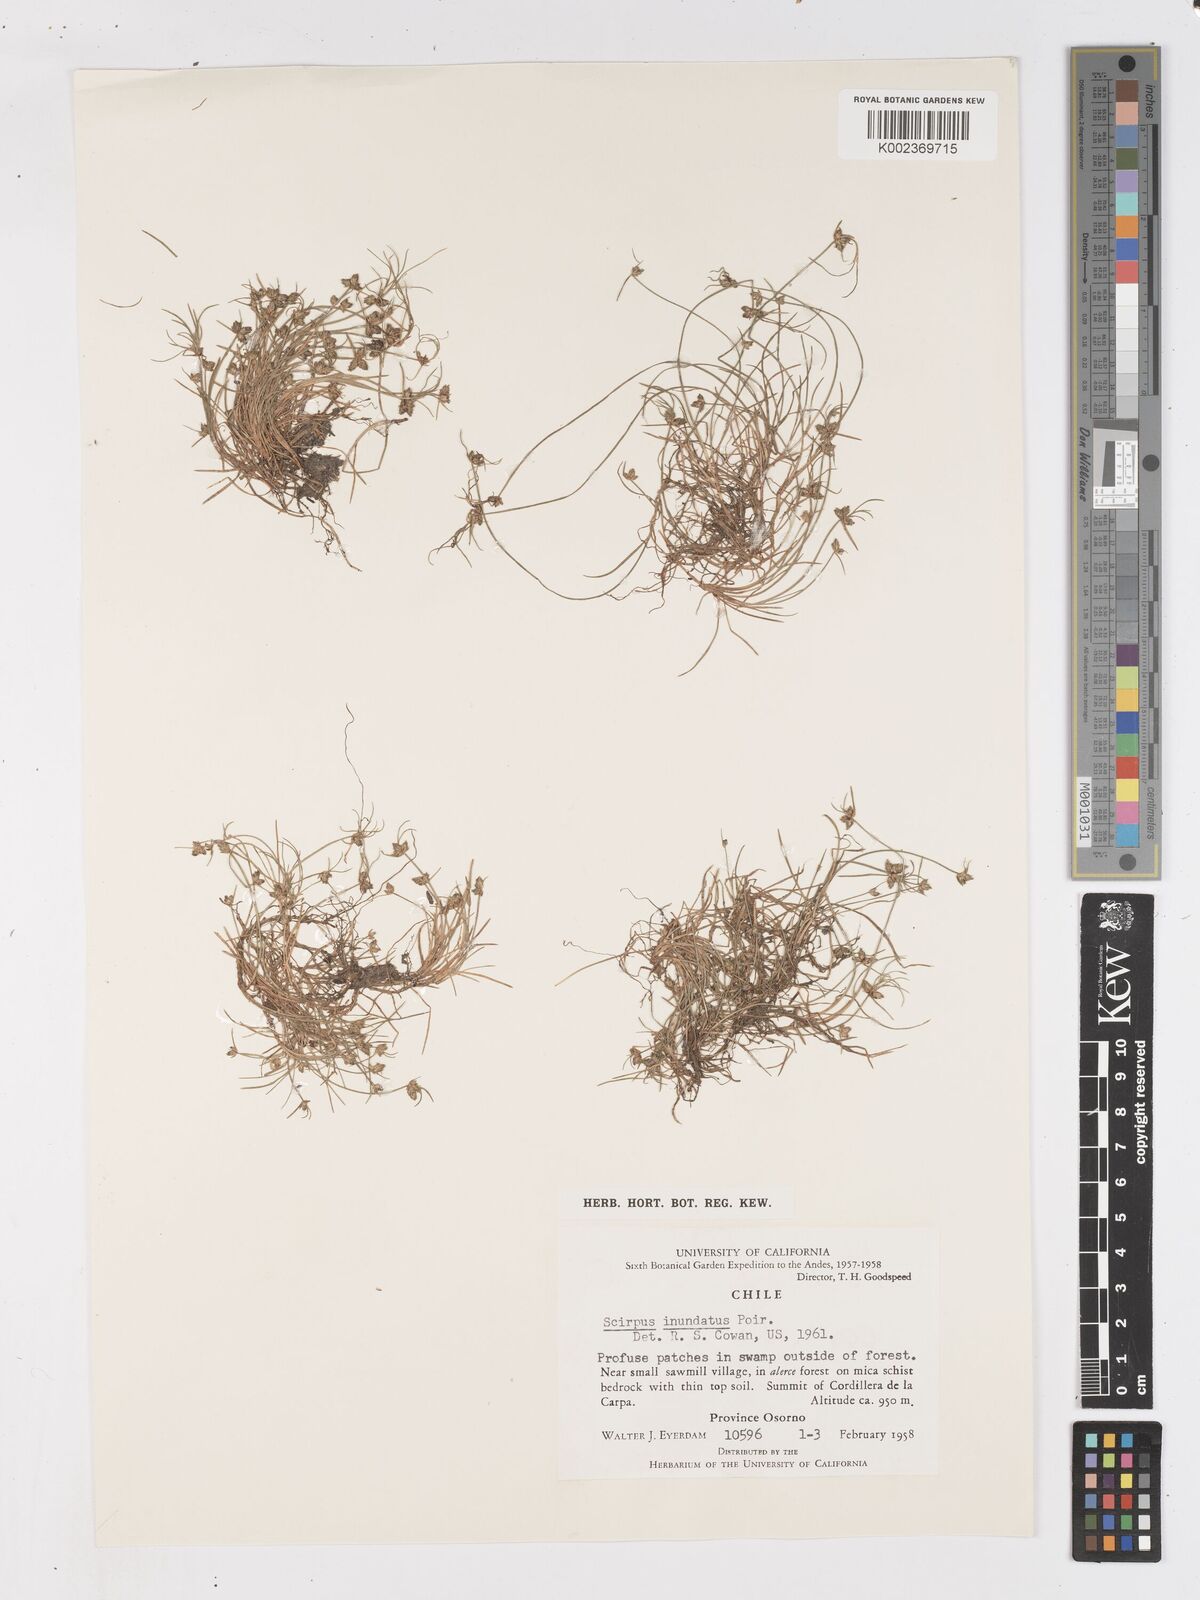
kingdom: Plantae
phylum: Tracheophyta
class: Liliopsida
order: Poales
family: Cyperaceae
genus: Isolepis
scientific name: Isolepis inundata
